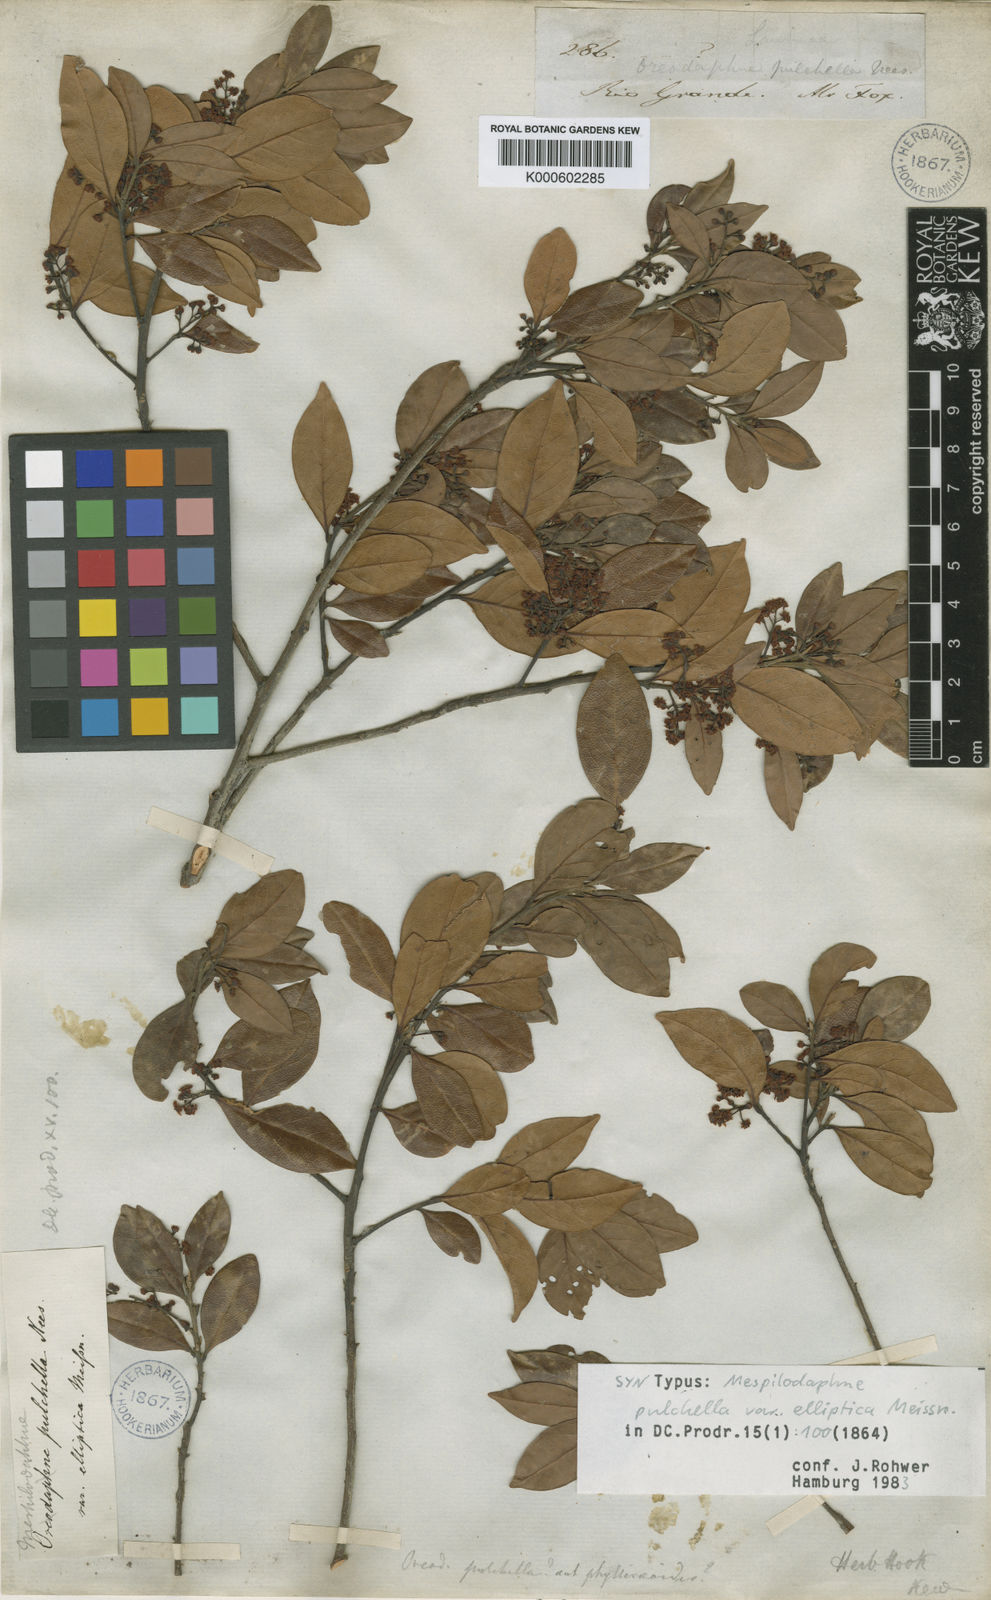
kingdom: Plantae
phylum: Tracheophyta
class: Magnoliopsida
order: Laurales
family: Lauraceae
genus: Mespilodaphne
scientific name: Mespilodaphne pulchella
